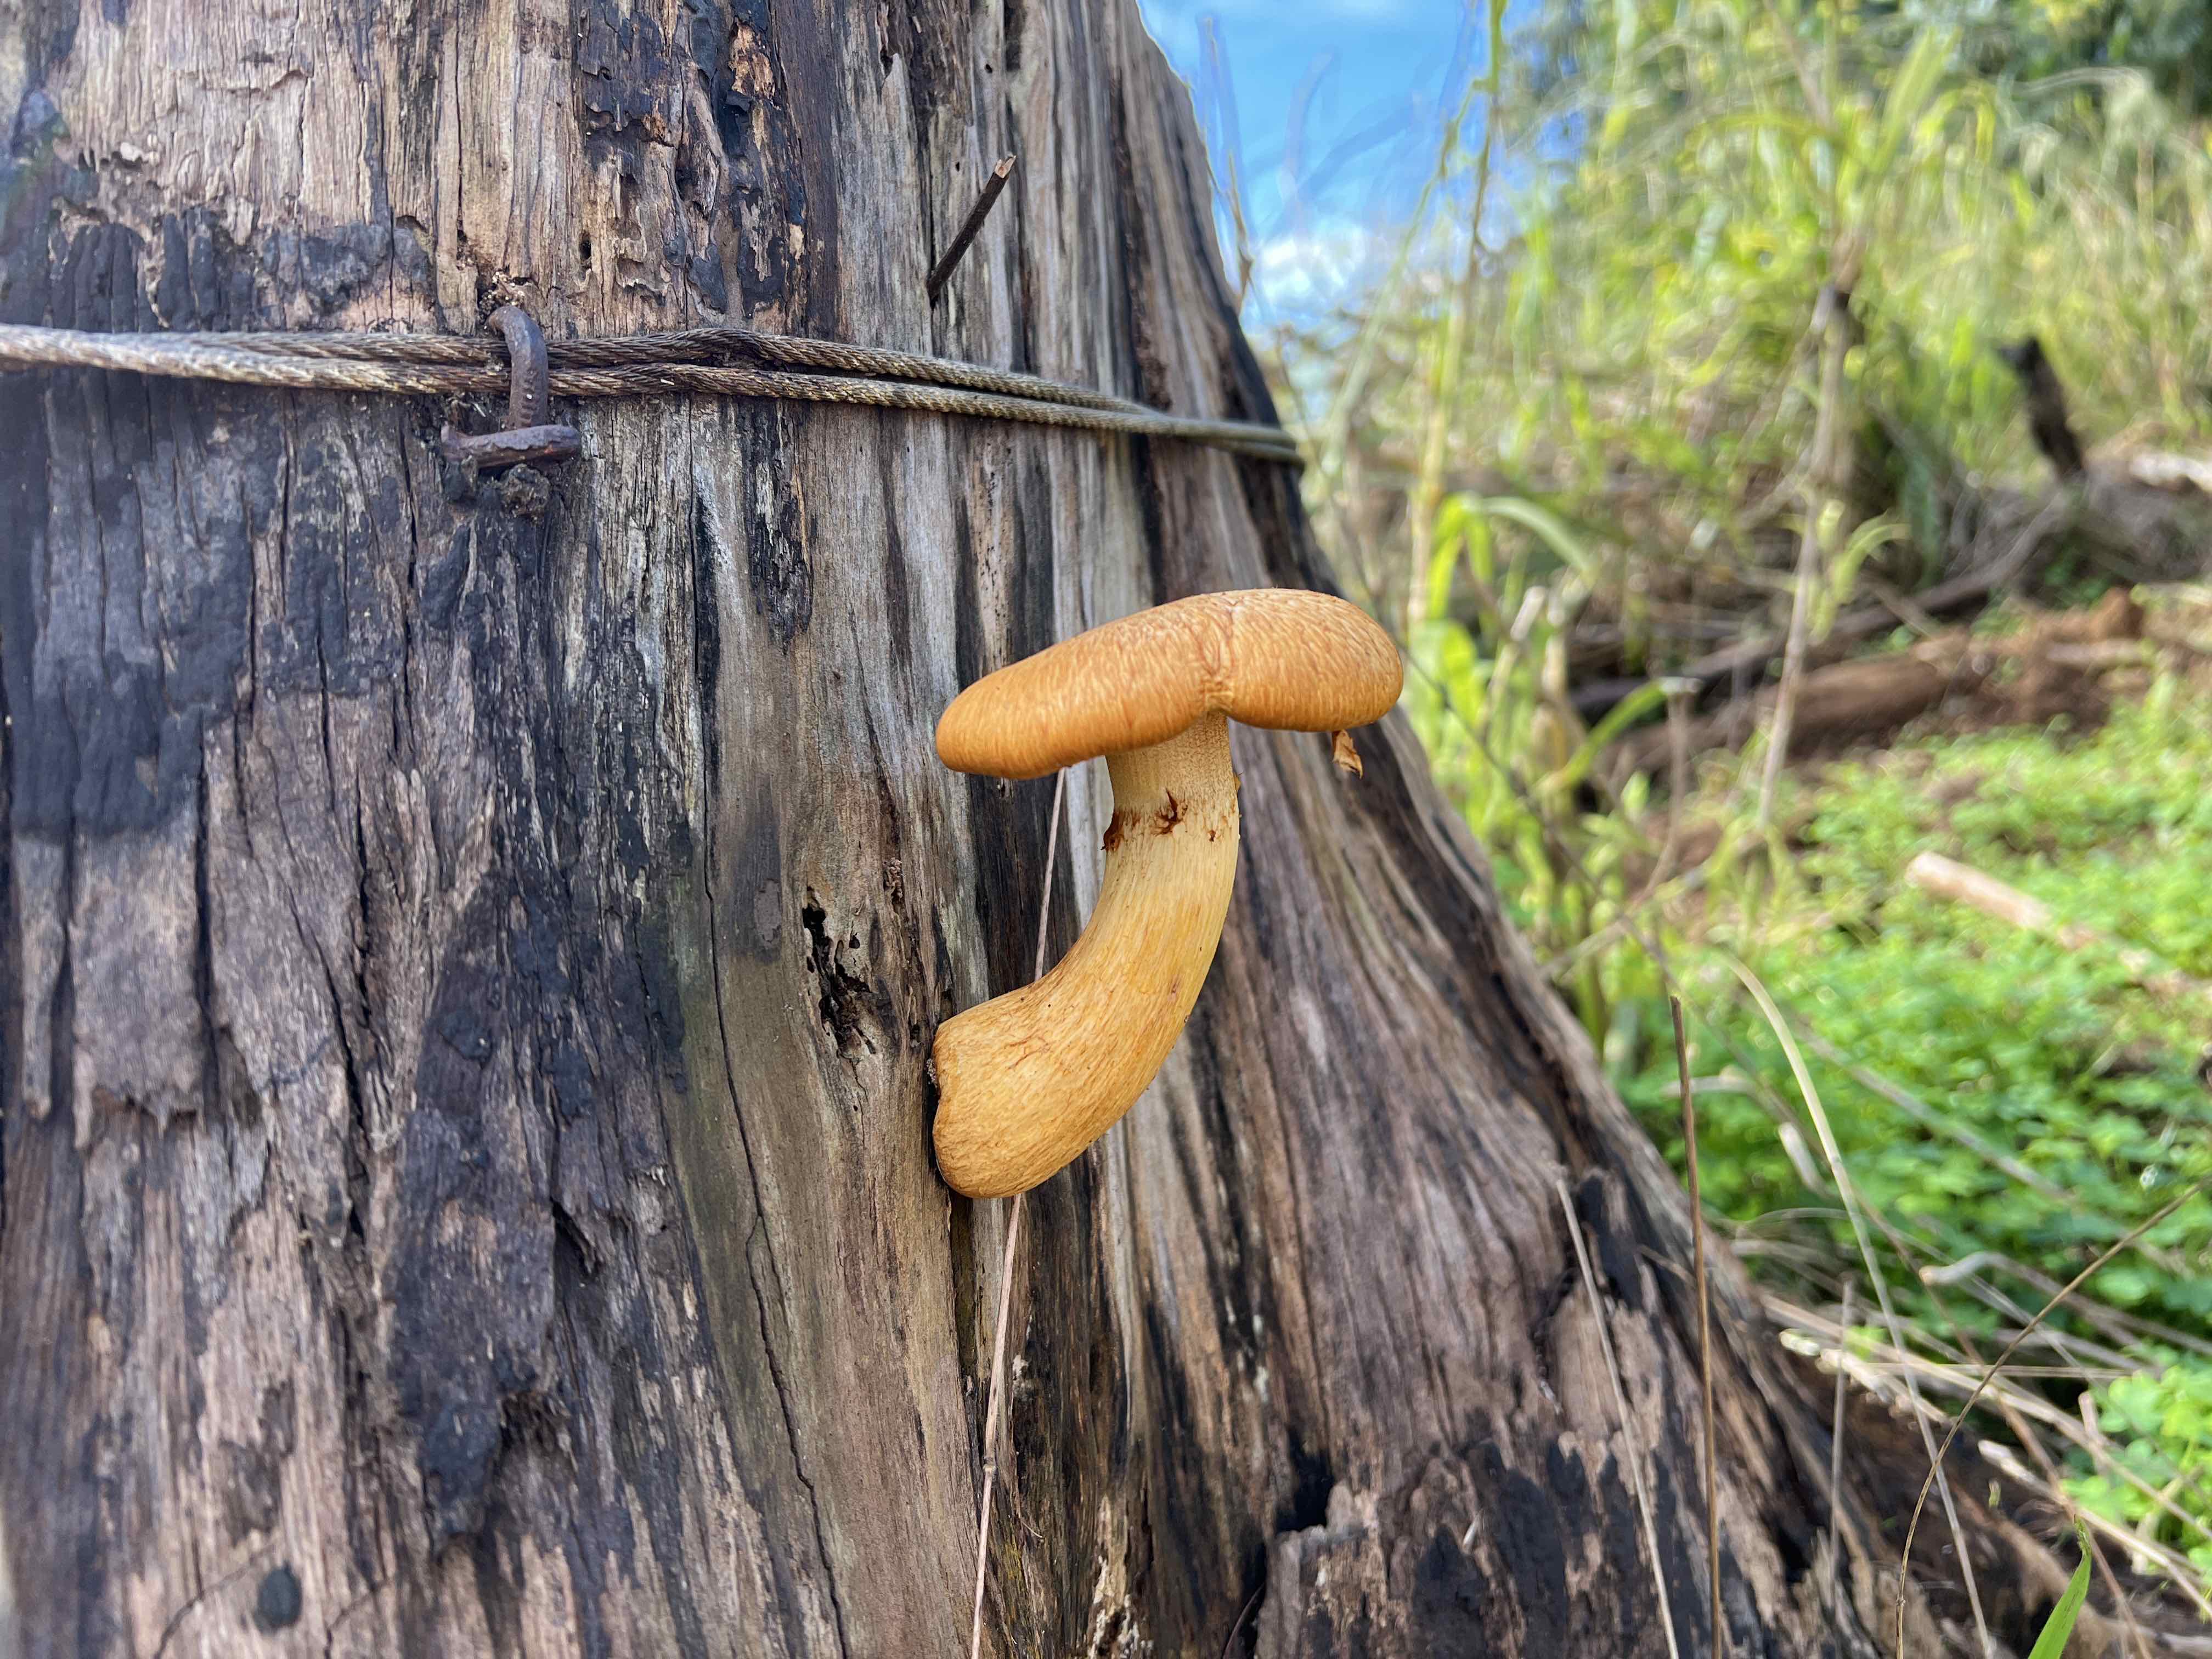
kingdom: Fungi
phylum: Basidiomycota
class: Agaricomycetes
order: Agaricales
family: Hymenogastraceae
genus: Gymnopilus
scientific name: Gymnopilus
